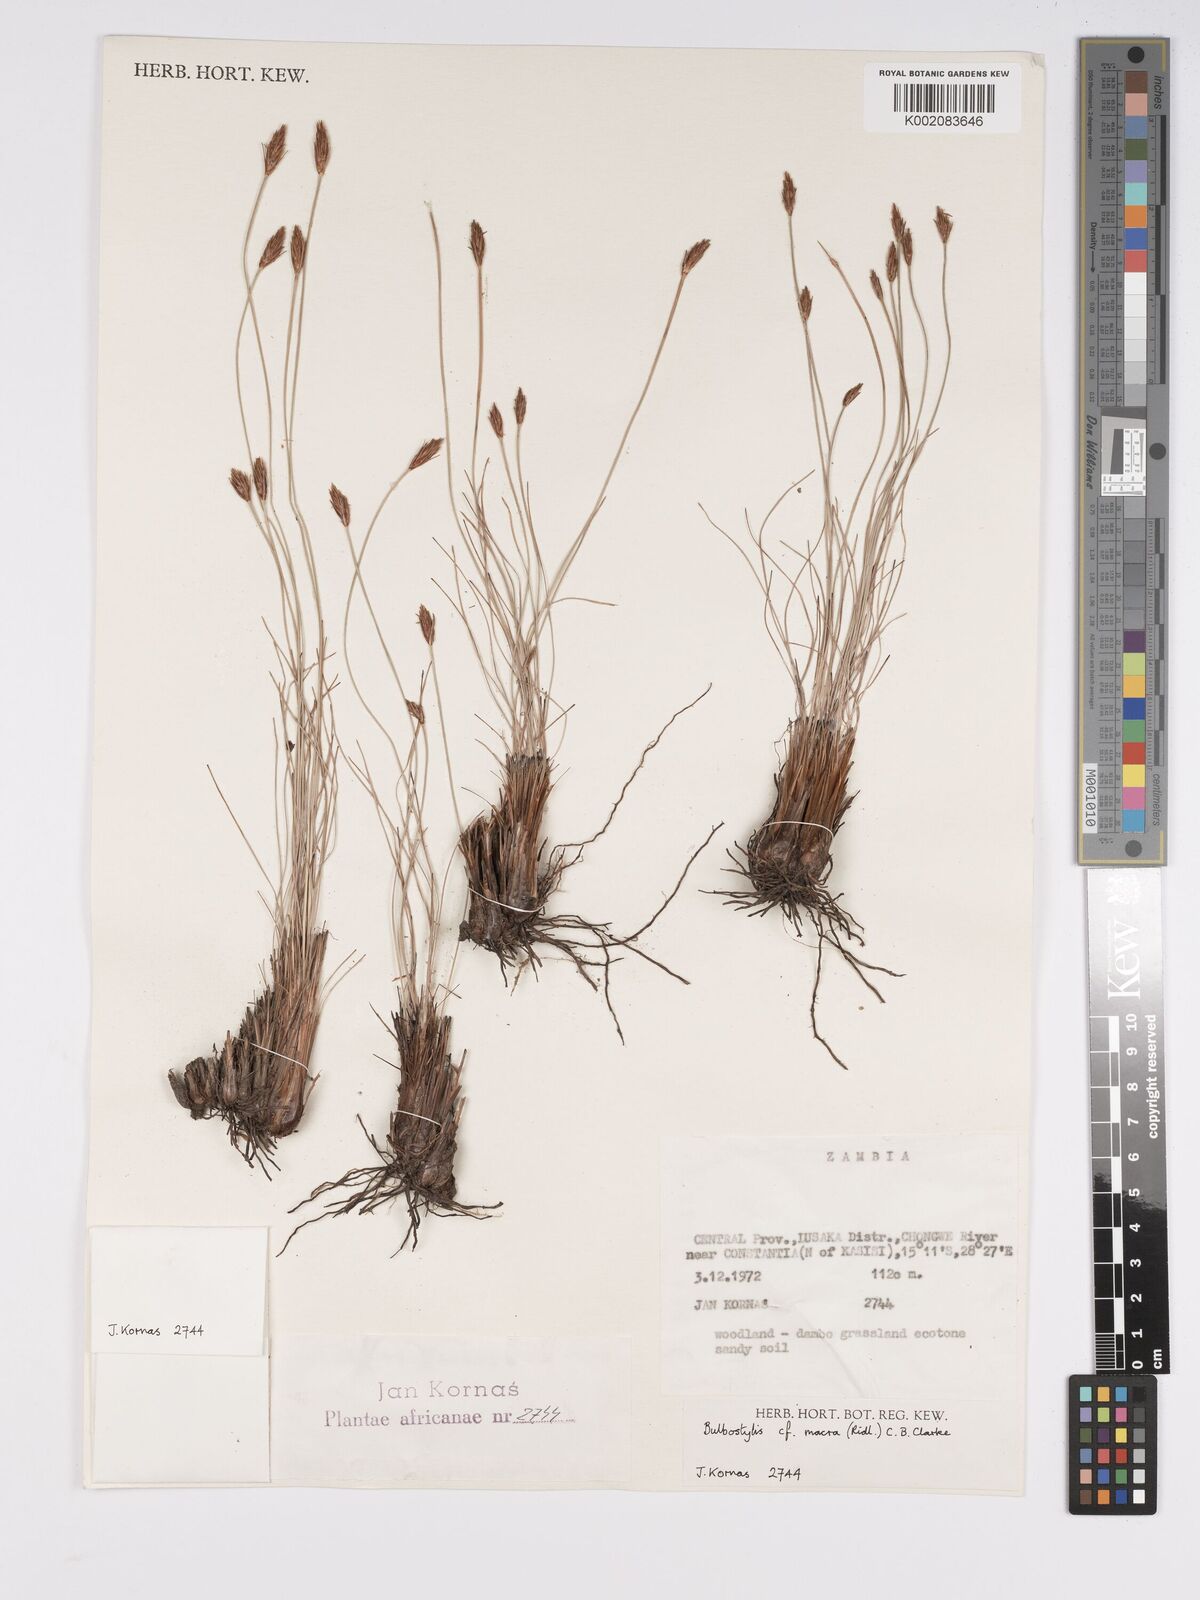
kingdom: Plantae
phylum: Tracheophyta
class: Liliopsida
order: Poales
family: Cyperaceae
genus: Bulbostylis
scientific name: Bulbostylis macra
